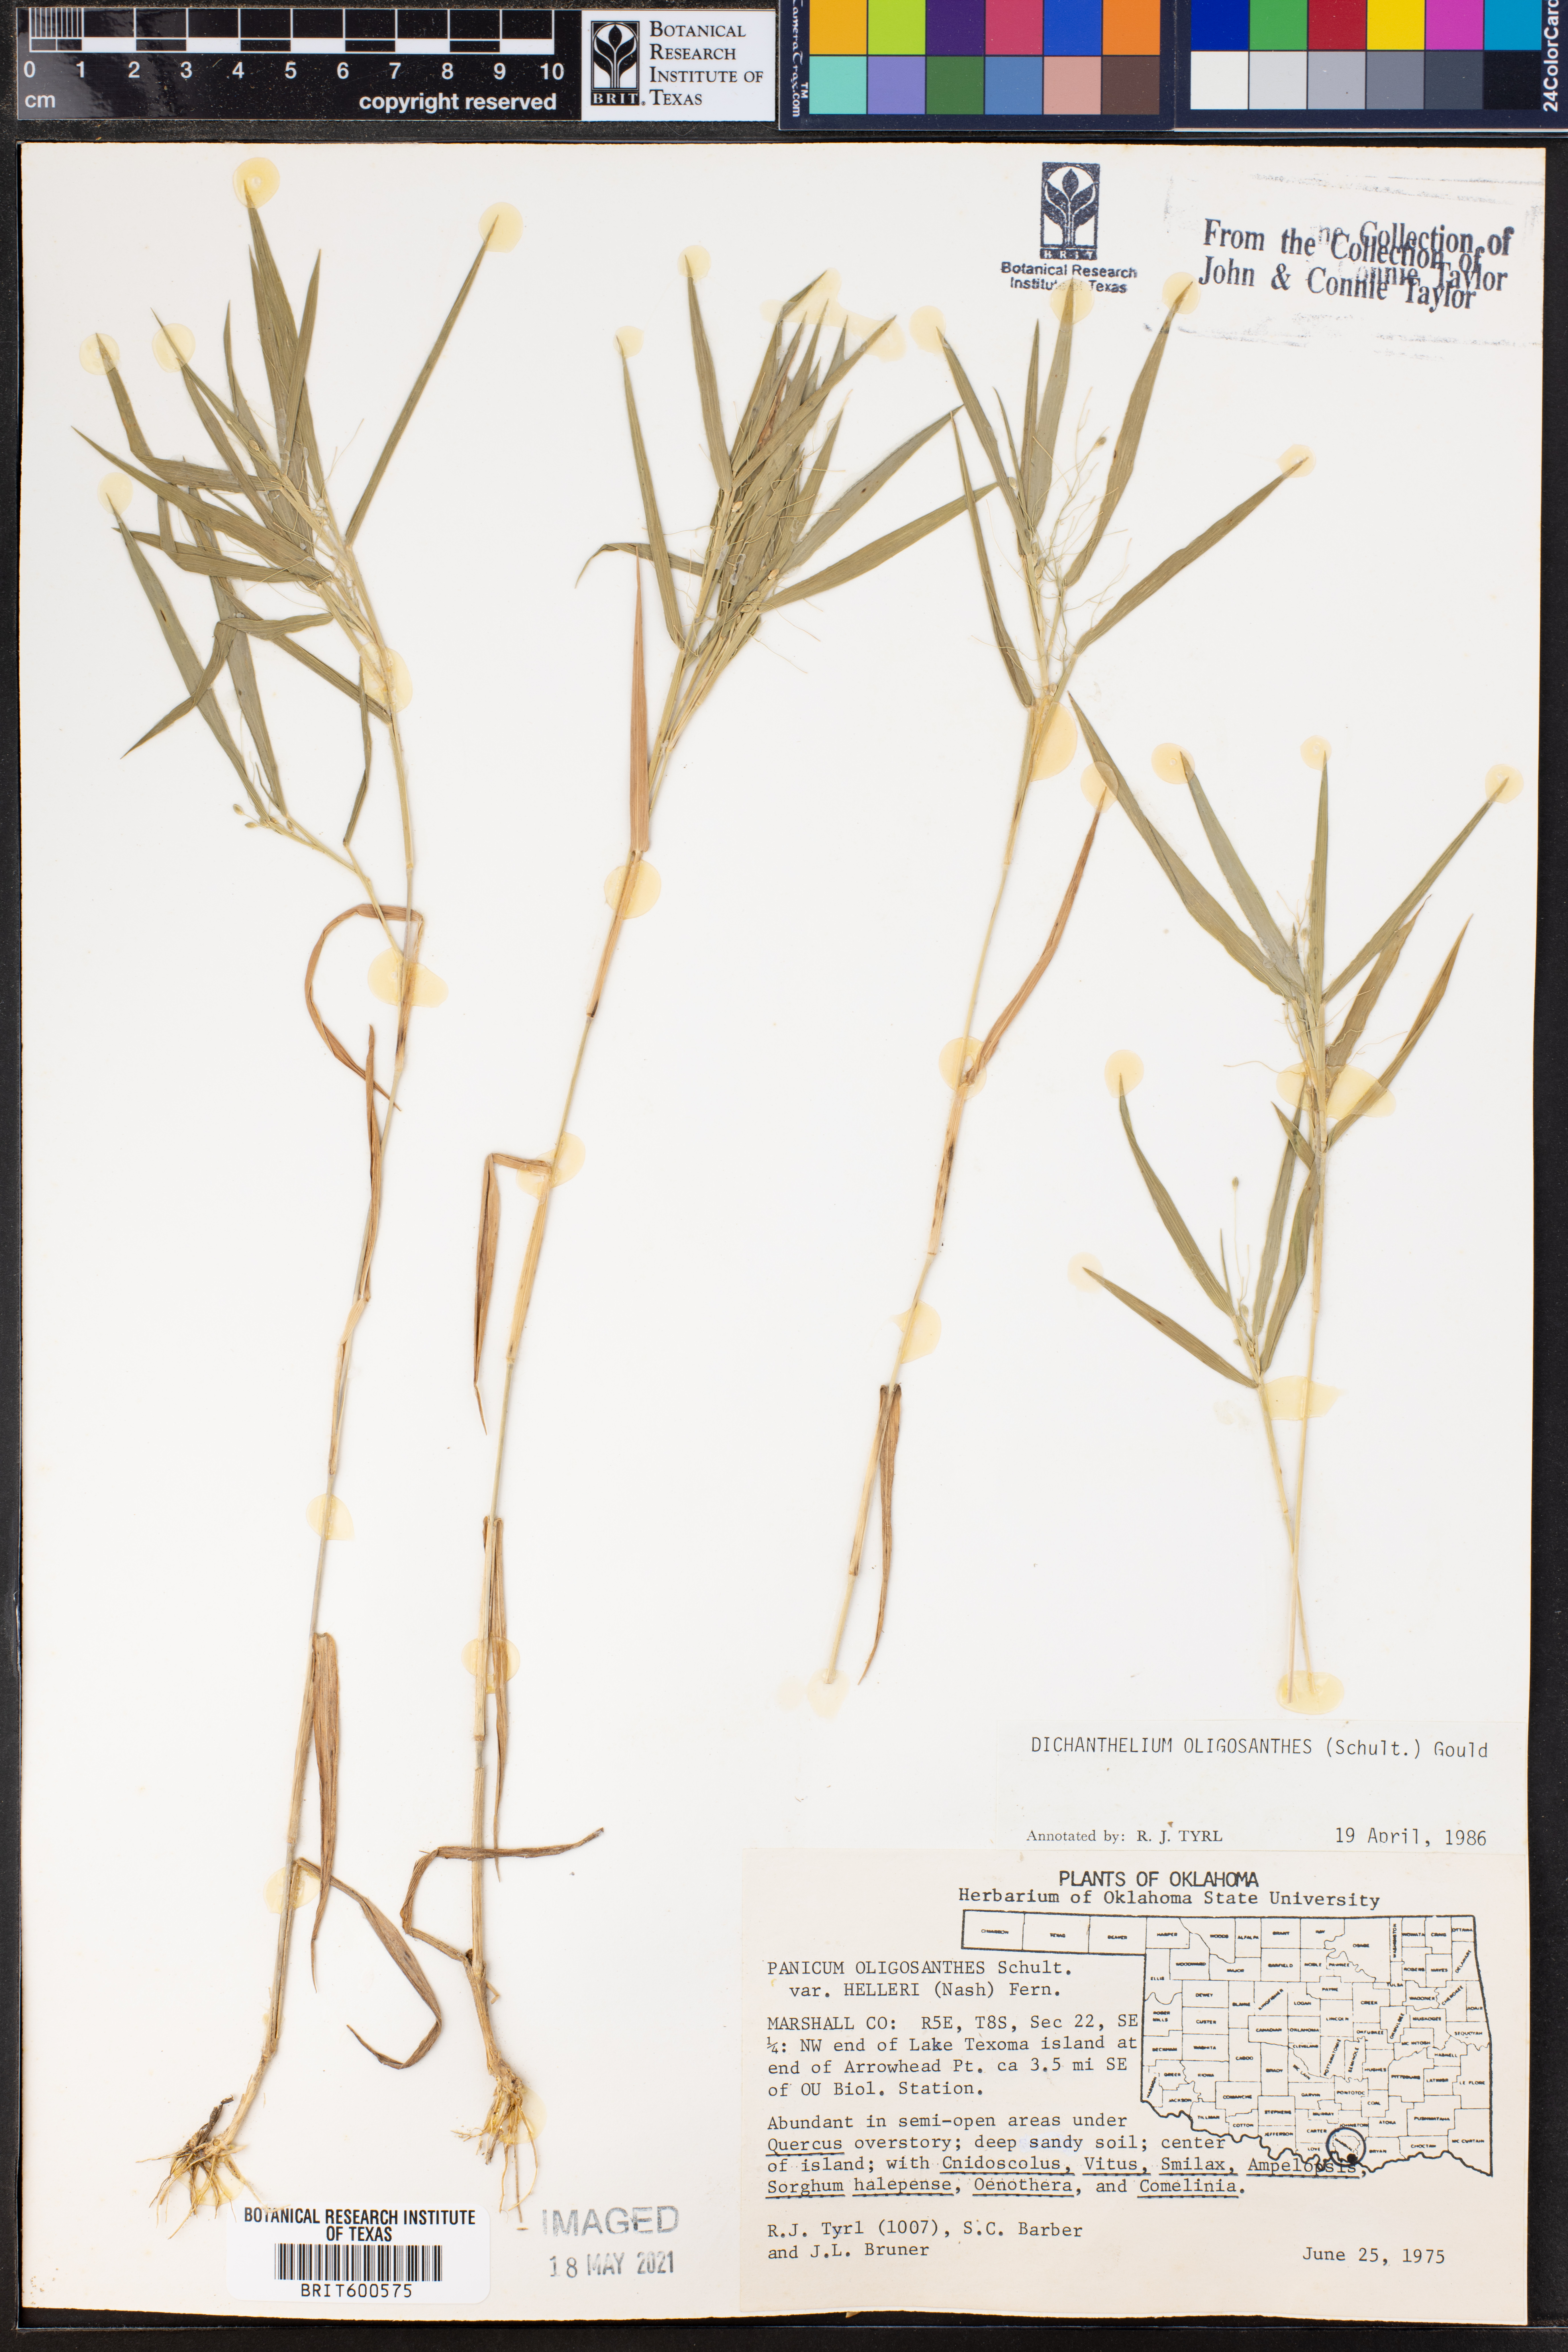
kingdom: Plantae
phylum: Tracheophyta
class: Liliopsida
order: Poales
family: Poaceae
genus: Dichanthelium
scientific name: Dichanthelium oligosanthes
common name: Few-anther obscuregrass
